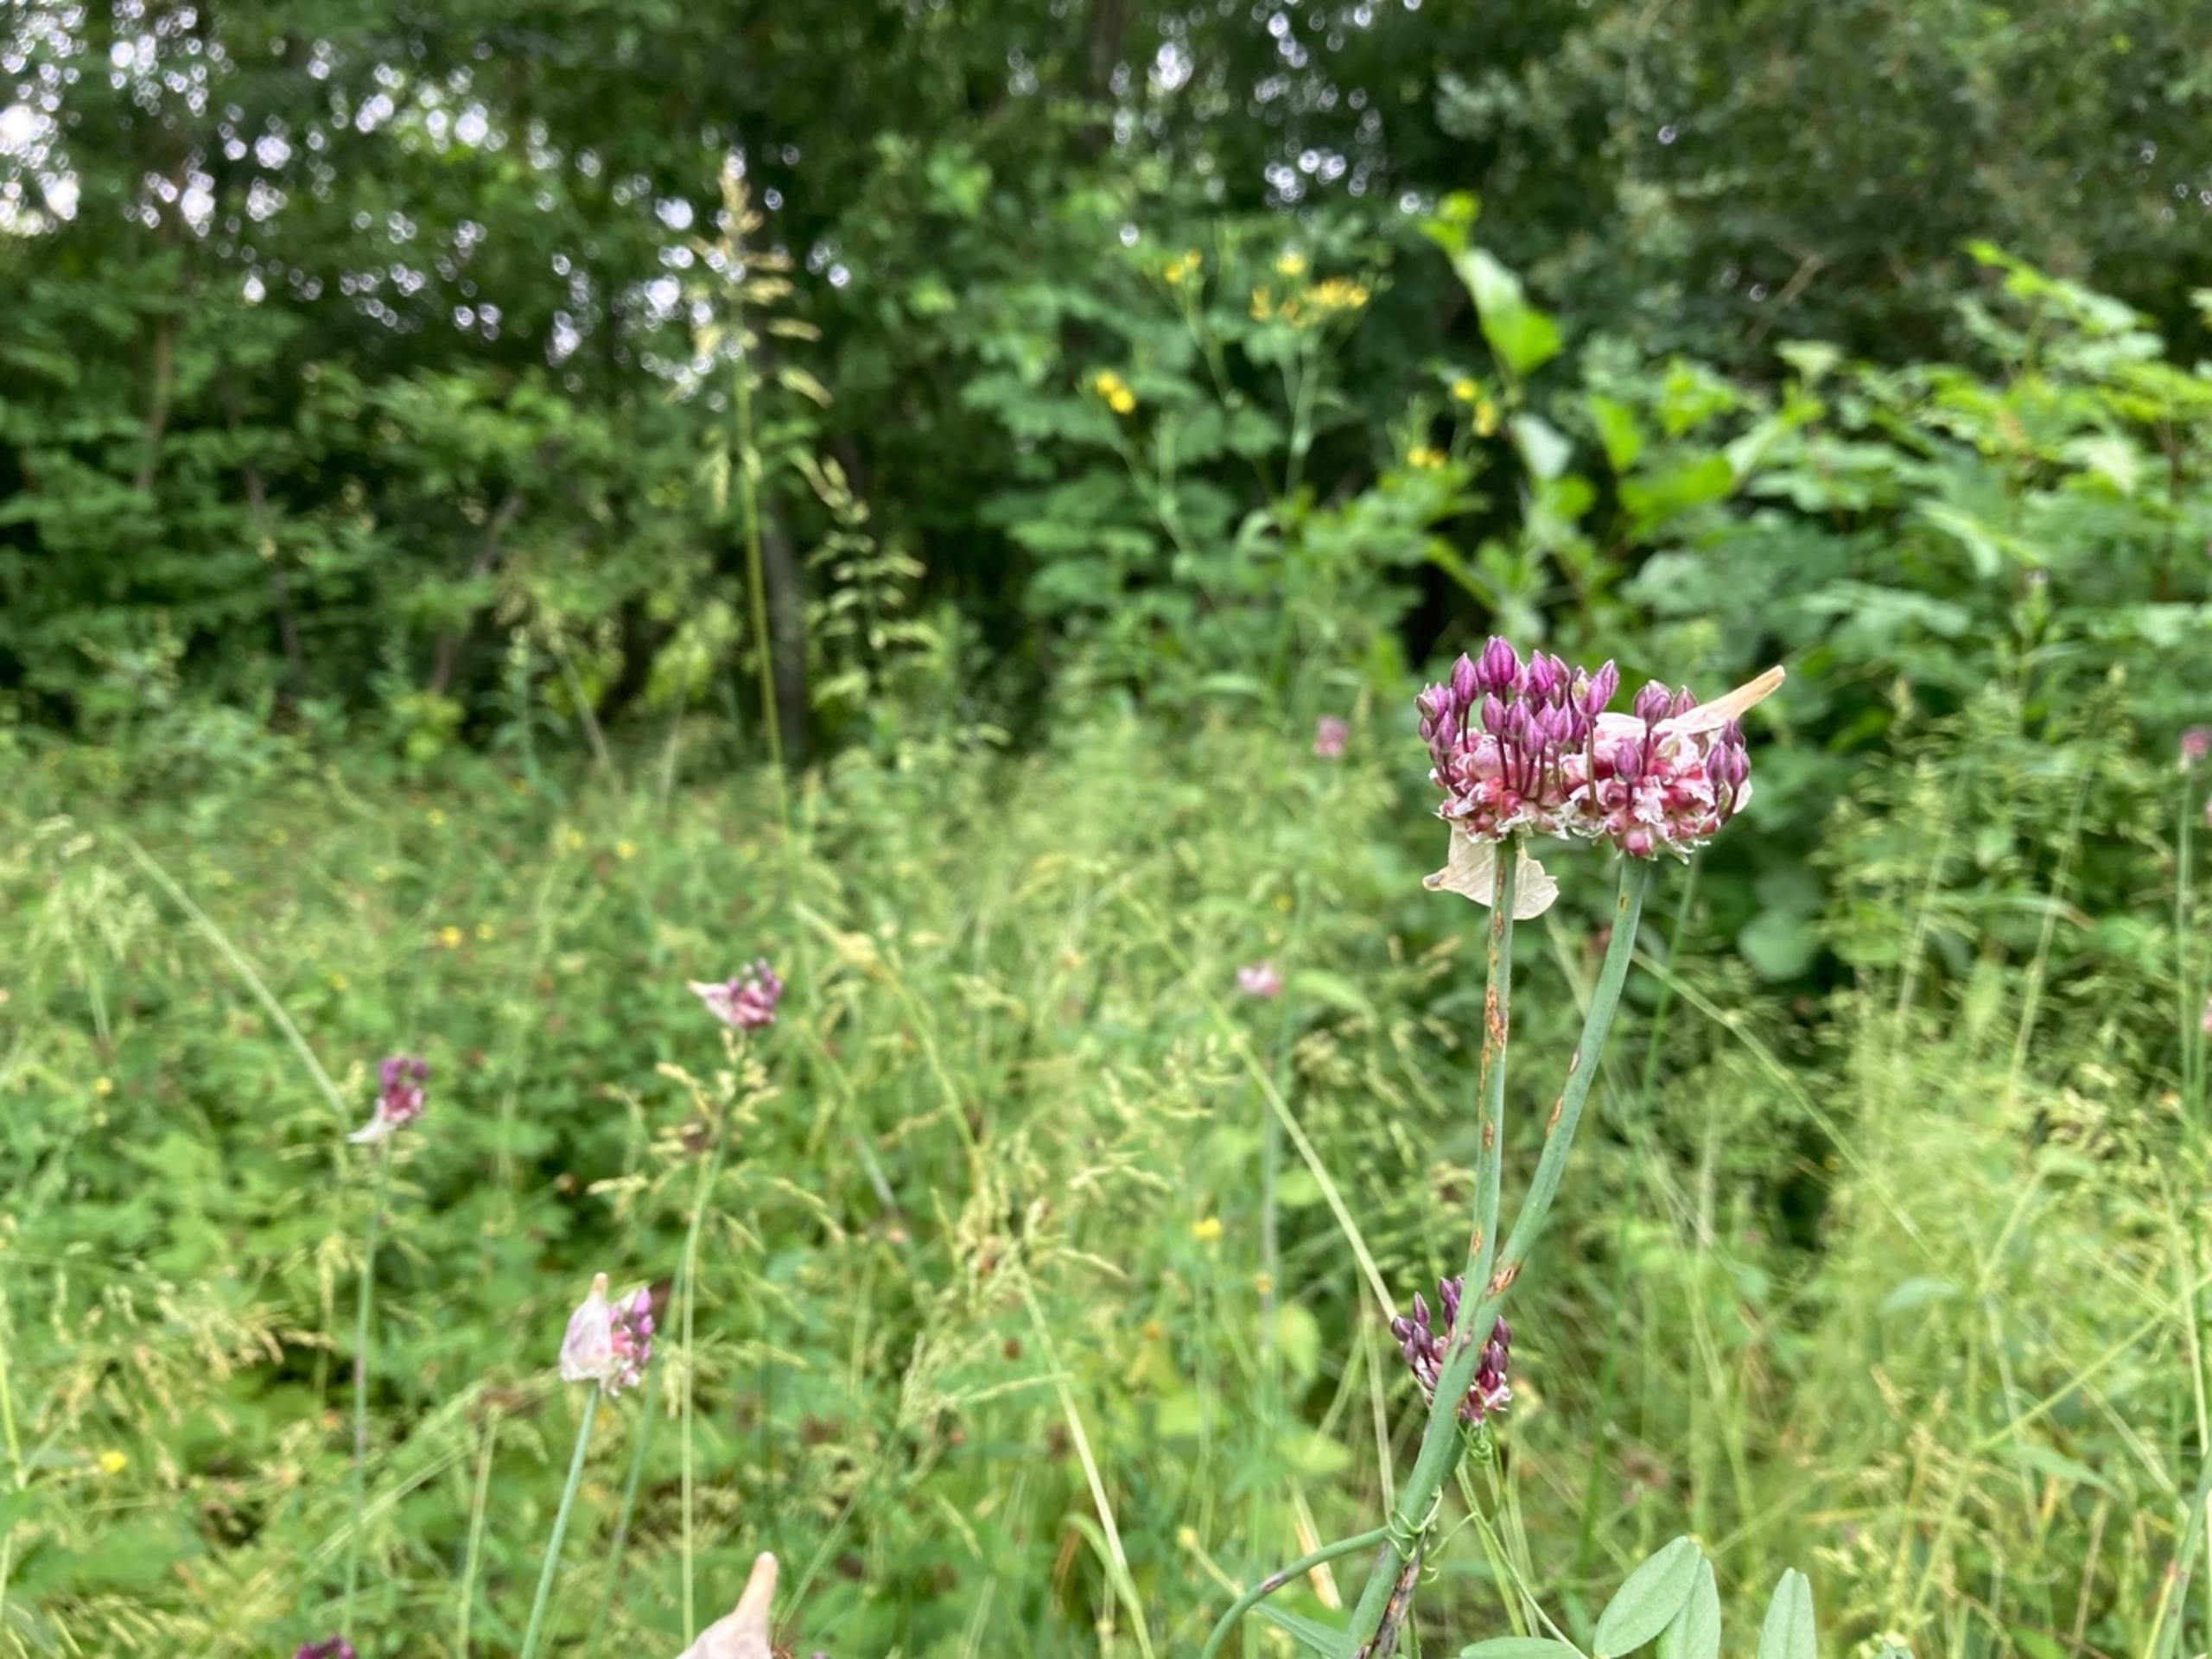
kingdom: Plantae
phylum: Tracheophyta
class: Liliopsida
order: Asparagales
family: Amaryllidaceae
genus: Allium
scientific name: Allium scorodoprasum
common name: Skov-løg
